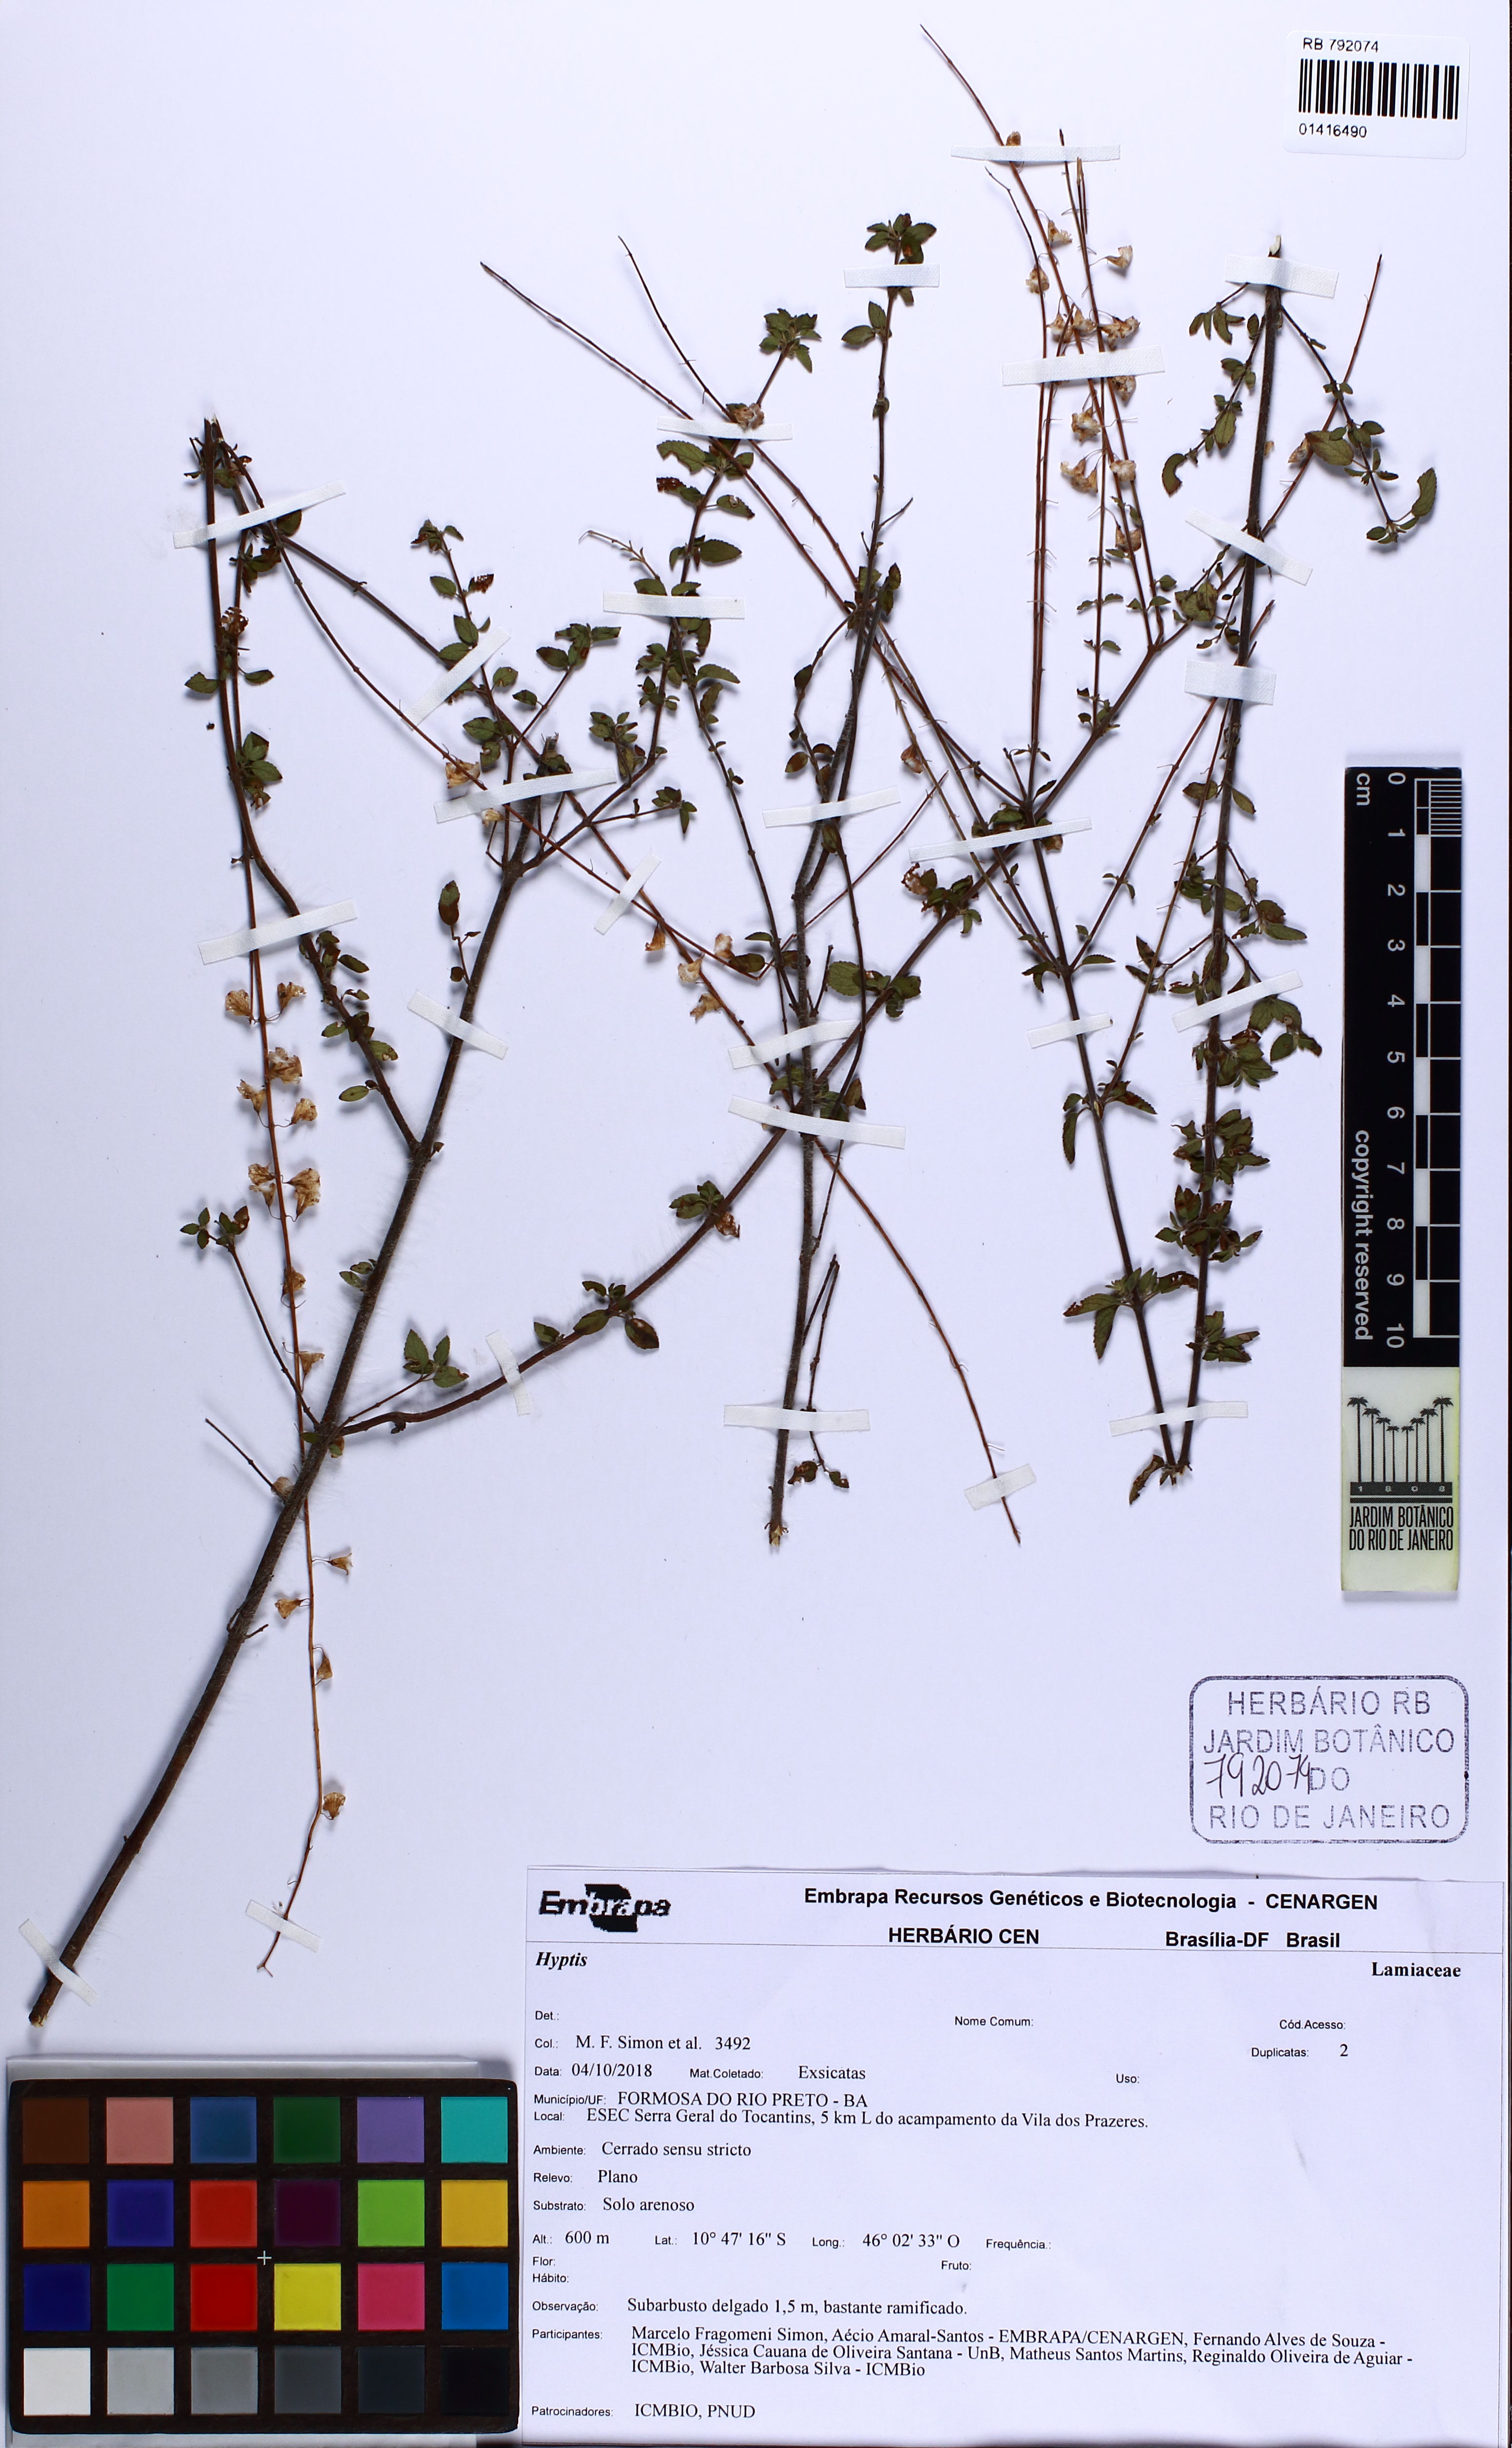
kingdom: Plantae
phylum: Tracheophyta
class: Magnoliopsida
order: Lamiales
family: Lamiaceae
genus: Eriope
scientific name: Eriope
